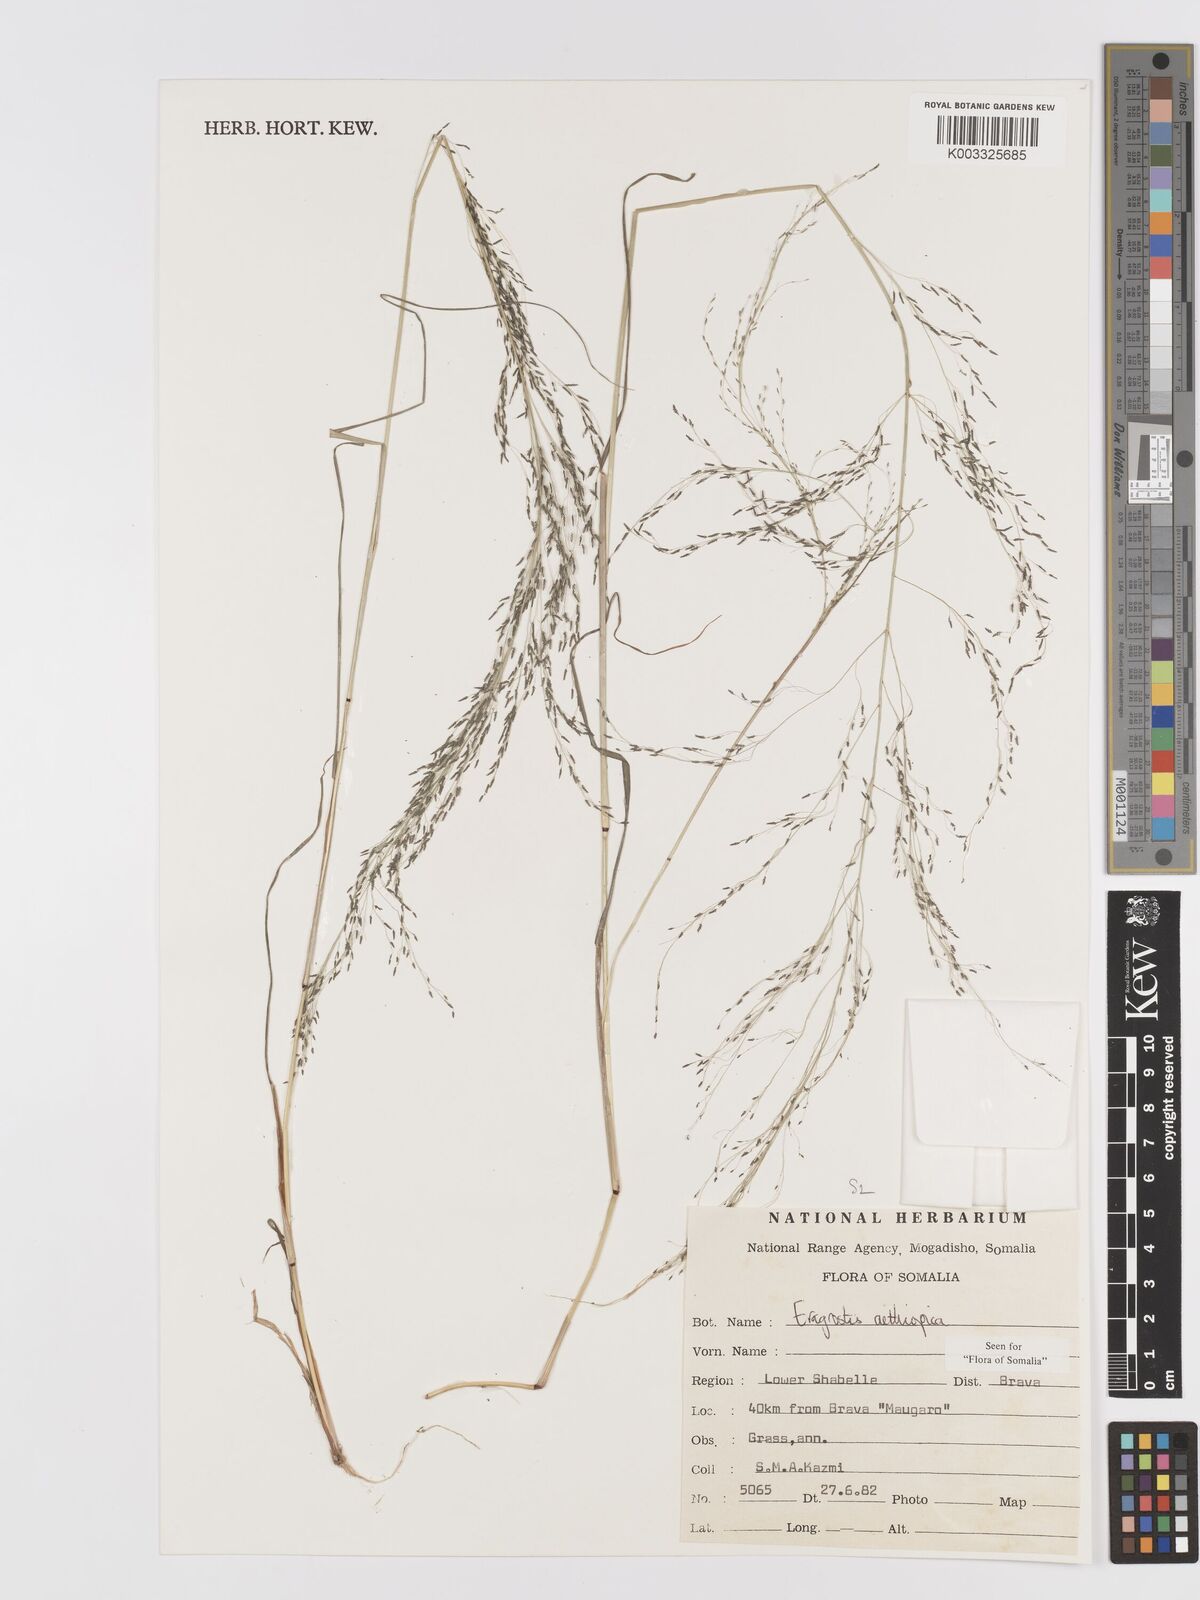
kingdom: Plantae
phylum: Tracheophyta
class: Liliopsida
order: Poales
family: Poaceae
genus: Eragrostis
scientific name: Eragrostis aethiopica
